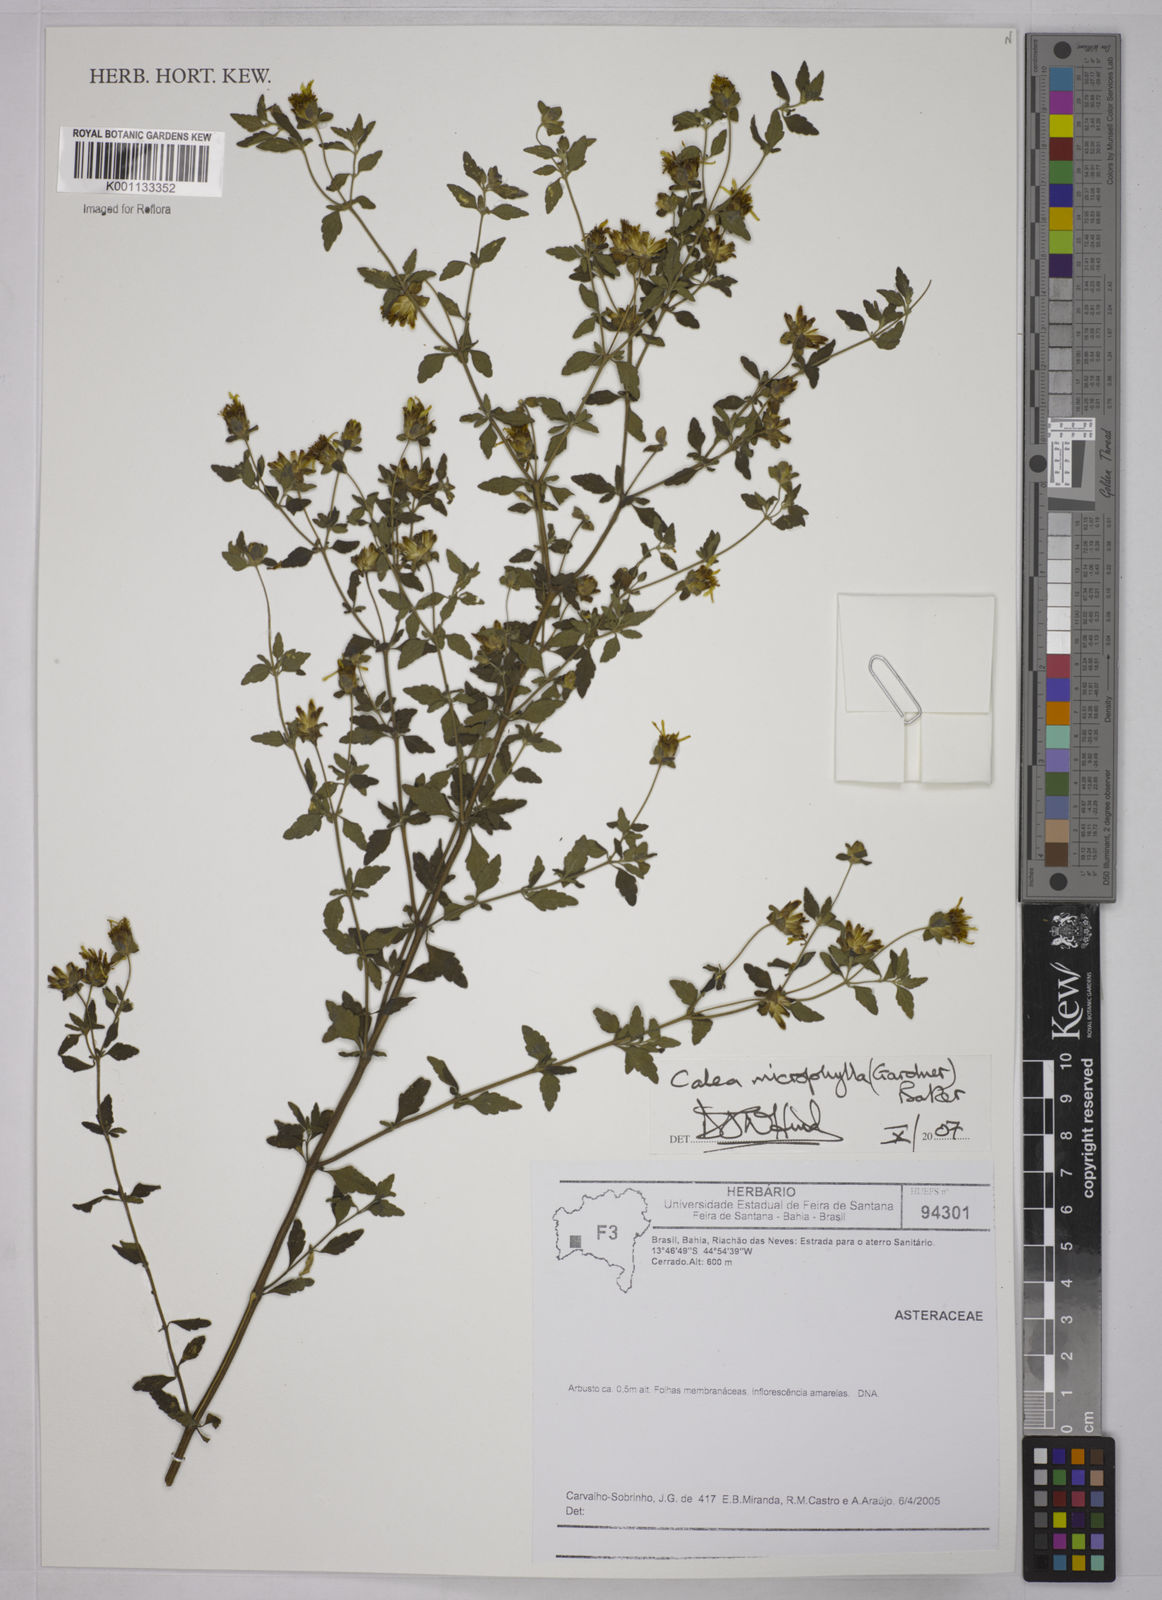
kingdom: Plantae
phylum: Tracheophyta
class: Magnoliopsida
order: Asterales
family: Asteraceae
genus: Calea
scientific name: Calea microphylla
